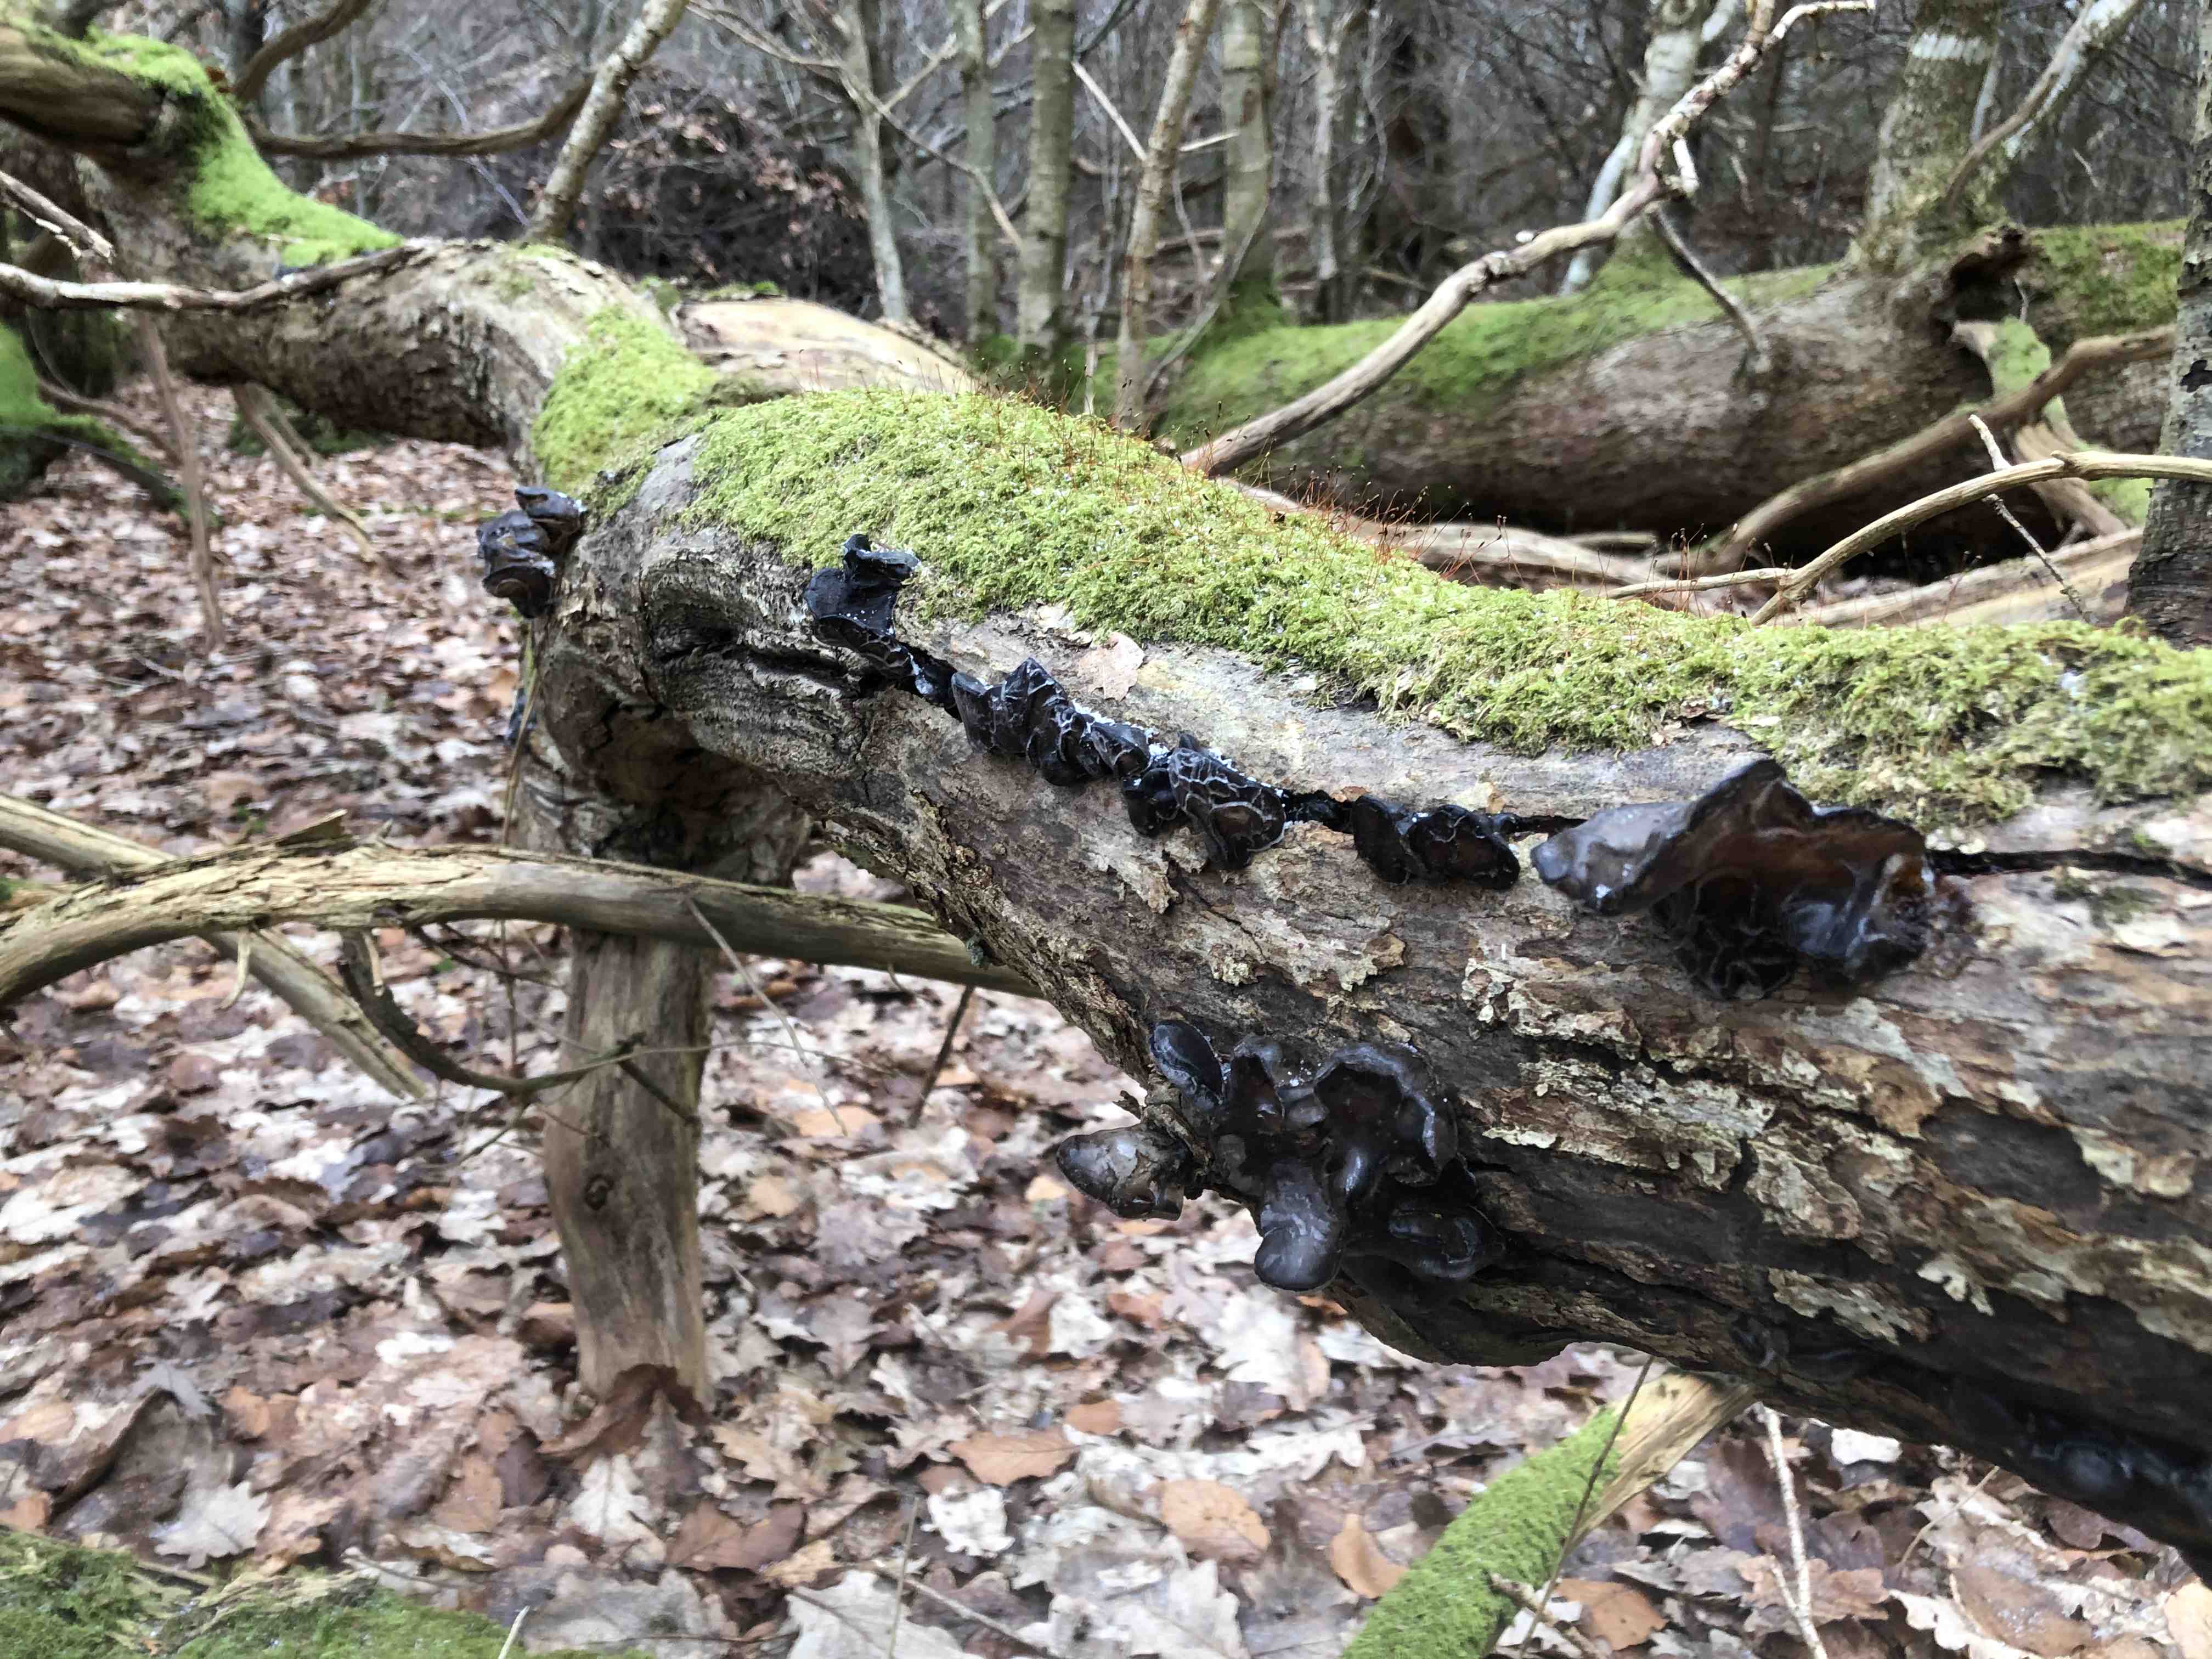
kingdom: Fungi
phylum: Basidiomycota
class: Agaricomycetes
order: Auriculariales
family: Auriculariaceae
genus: Exidia
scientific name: Exidia glandulosa
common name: ege-bævretop
